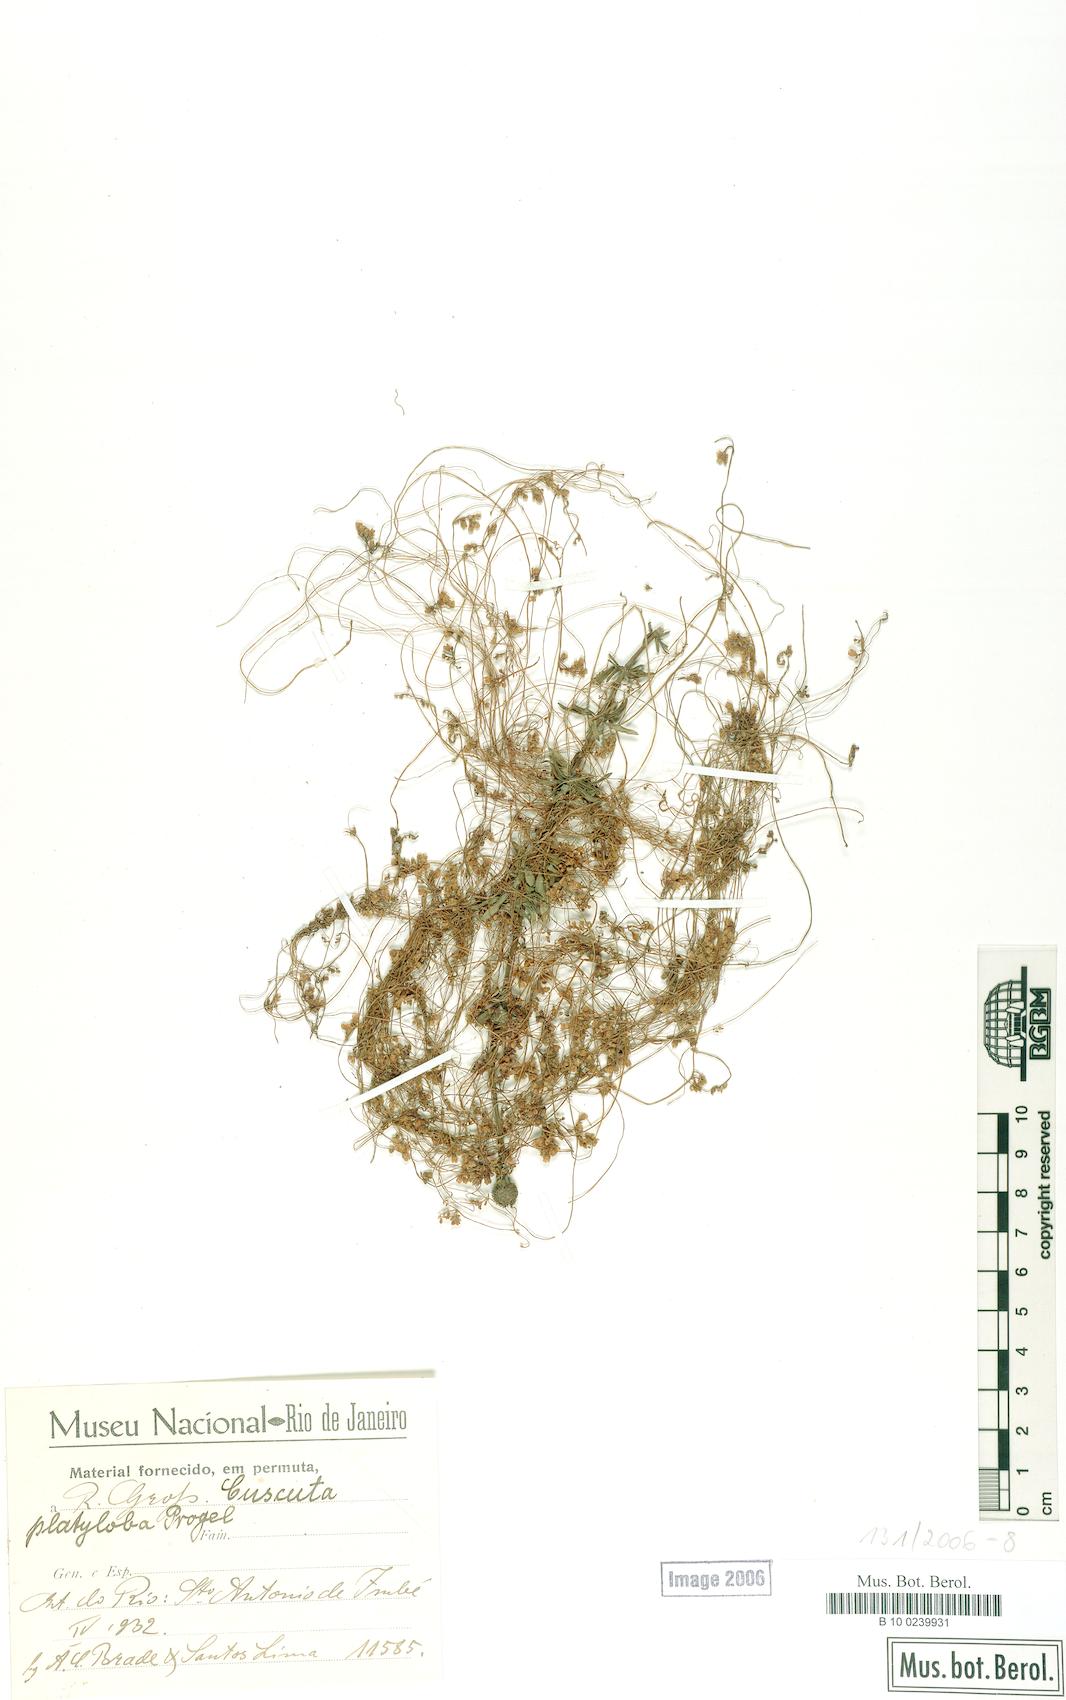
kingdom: Plantae
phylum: Tracheophyta
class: Magnoliopsida
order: Solanales
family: Convolvulaceae
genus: Cuscuta
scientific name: Cuscuta platyloba
